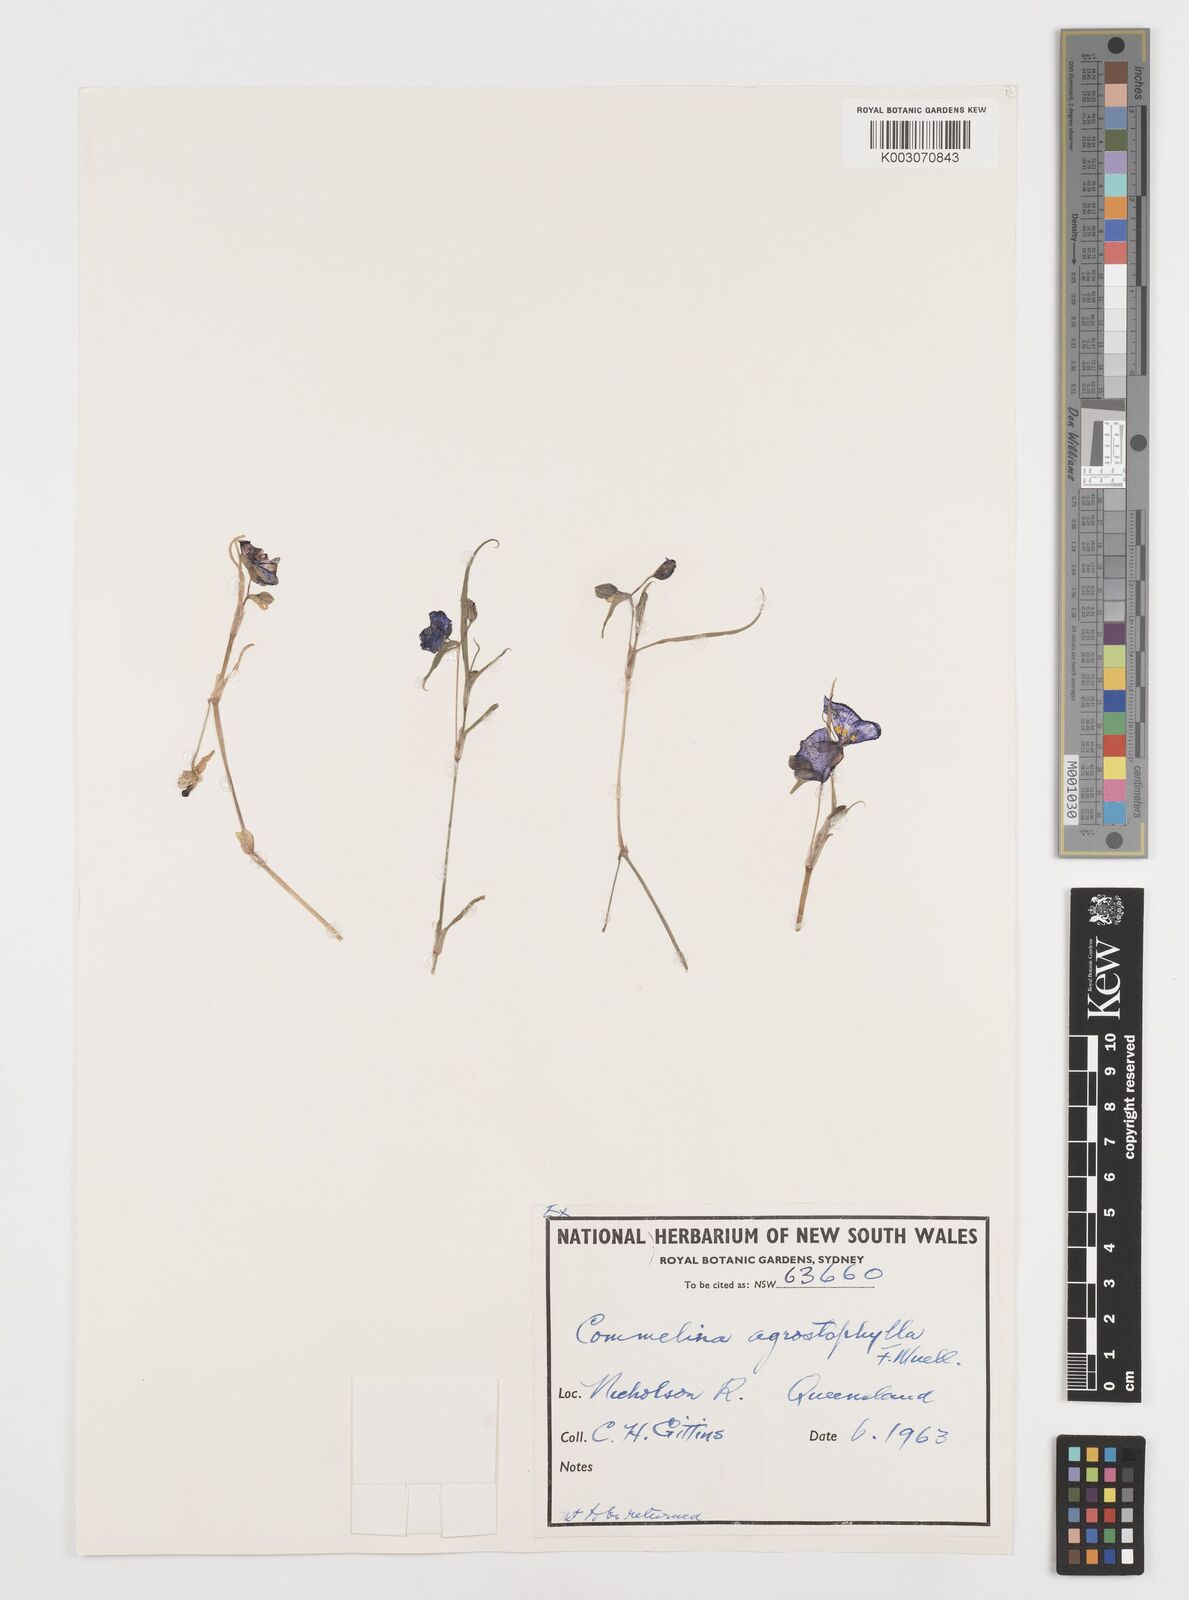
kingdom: Plantae
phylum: Tracheophyta
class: Liliopsida
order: Commelinales
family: Commelinaceae
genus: Commelina
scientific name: Commelina agrostophylla
